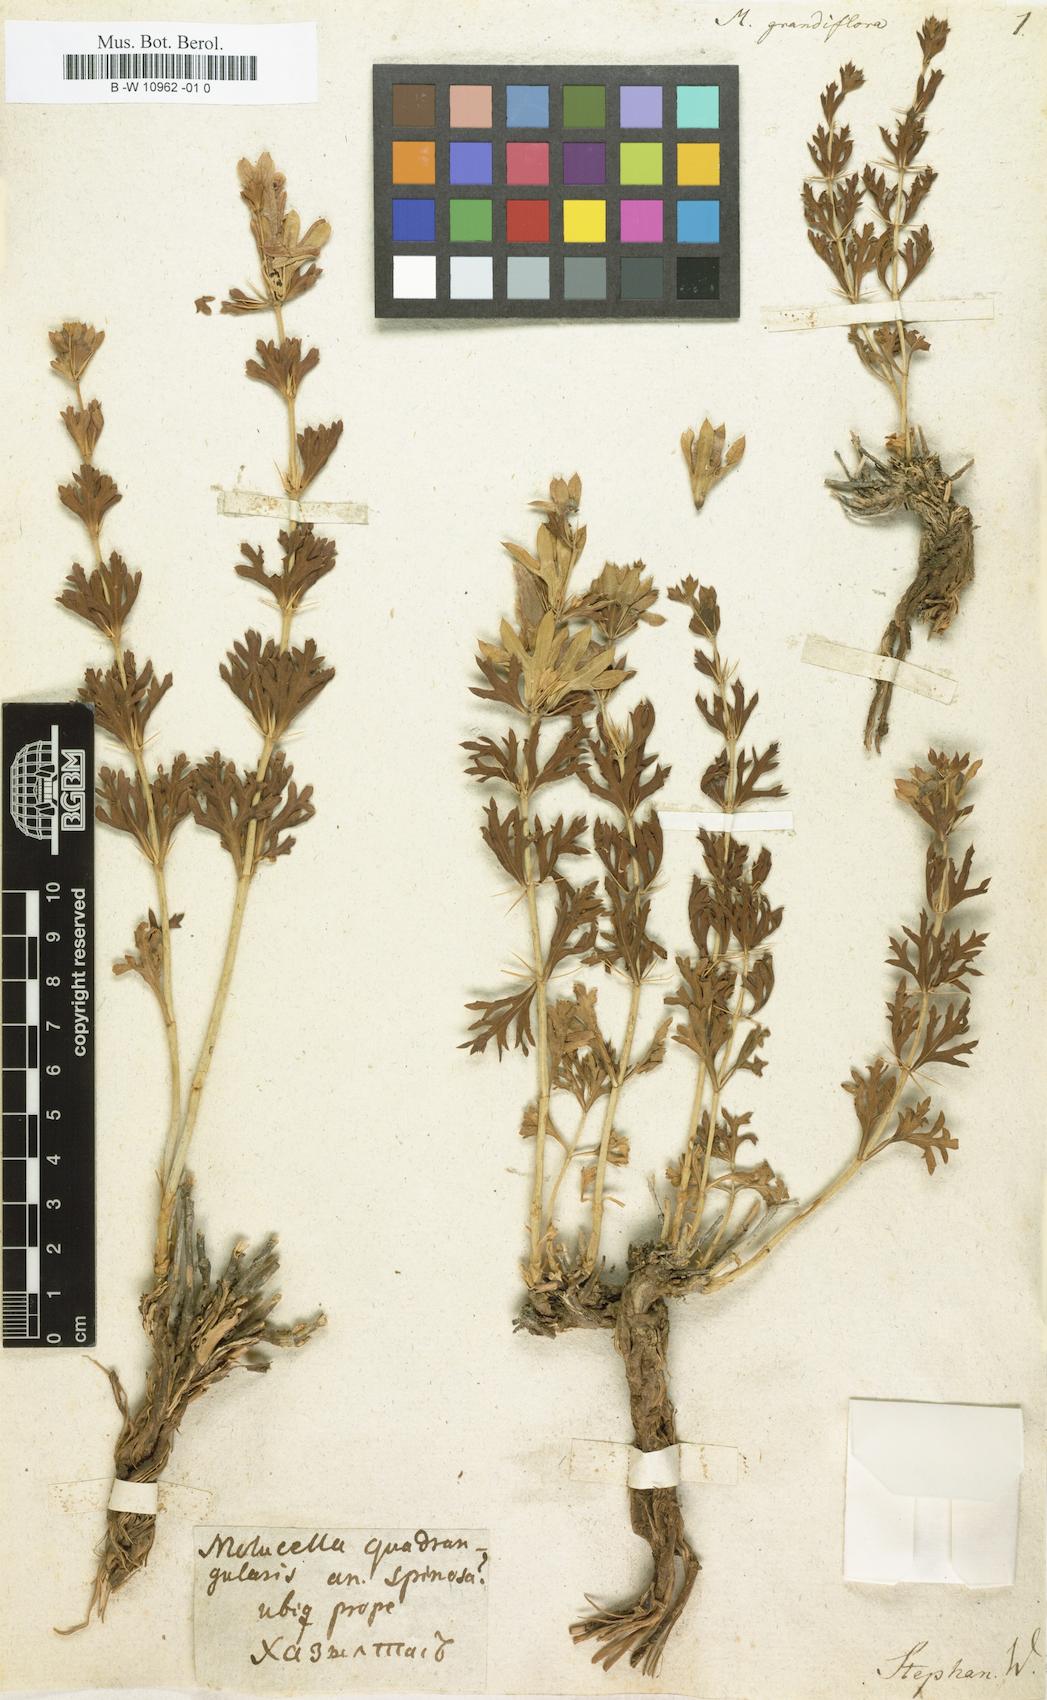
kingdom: Plantae
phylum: Tracheophyta
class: Magnoliopsida
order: Lamiales
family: Lamiaceae
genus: Moluccella
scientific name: Moluccella grandiflora
